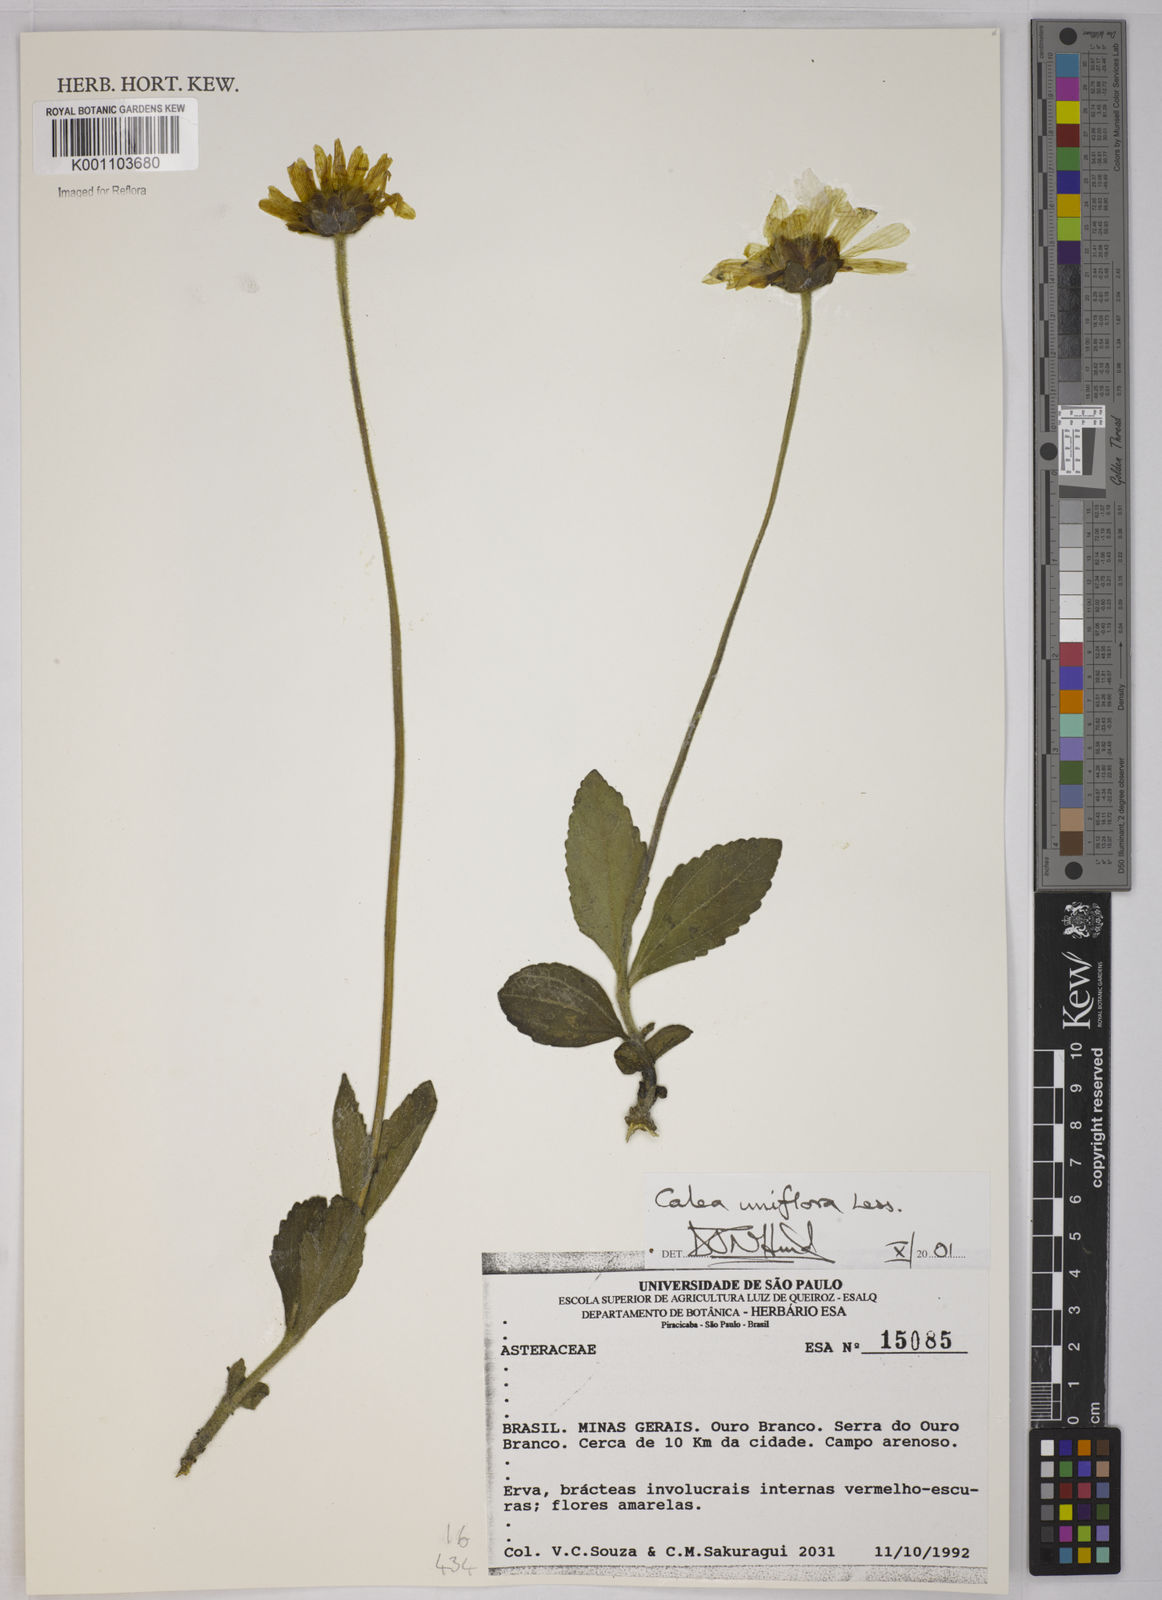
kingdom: Plantae
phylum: Tracheophyta
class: Magnoliopsida
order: Asterales
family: Asteraceae
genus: Calea
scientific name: Calea uniflora
